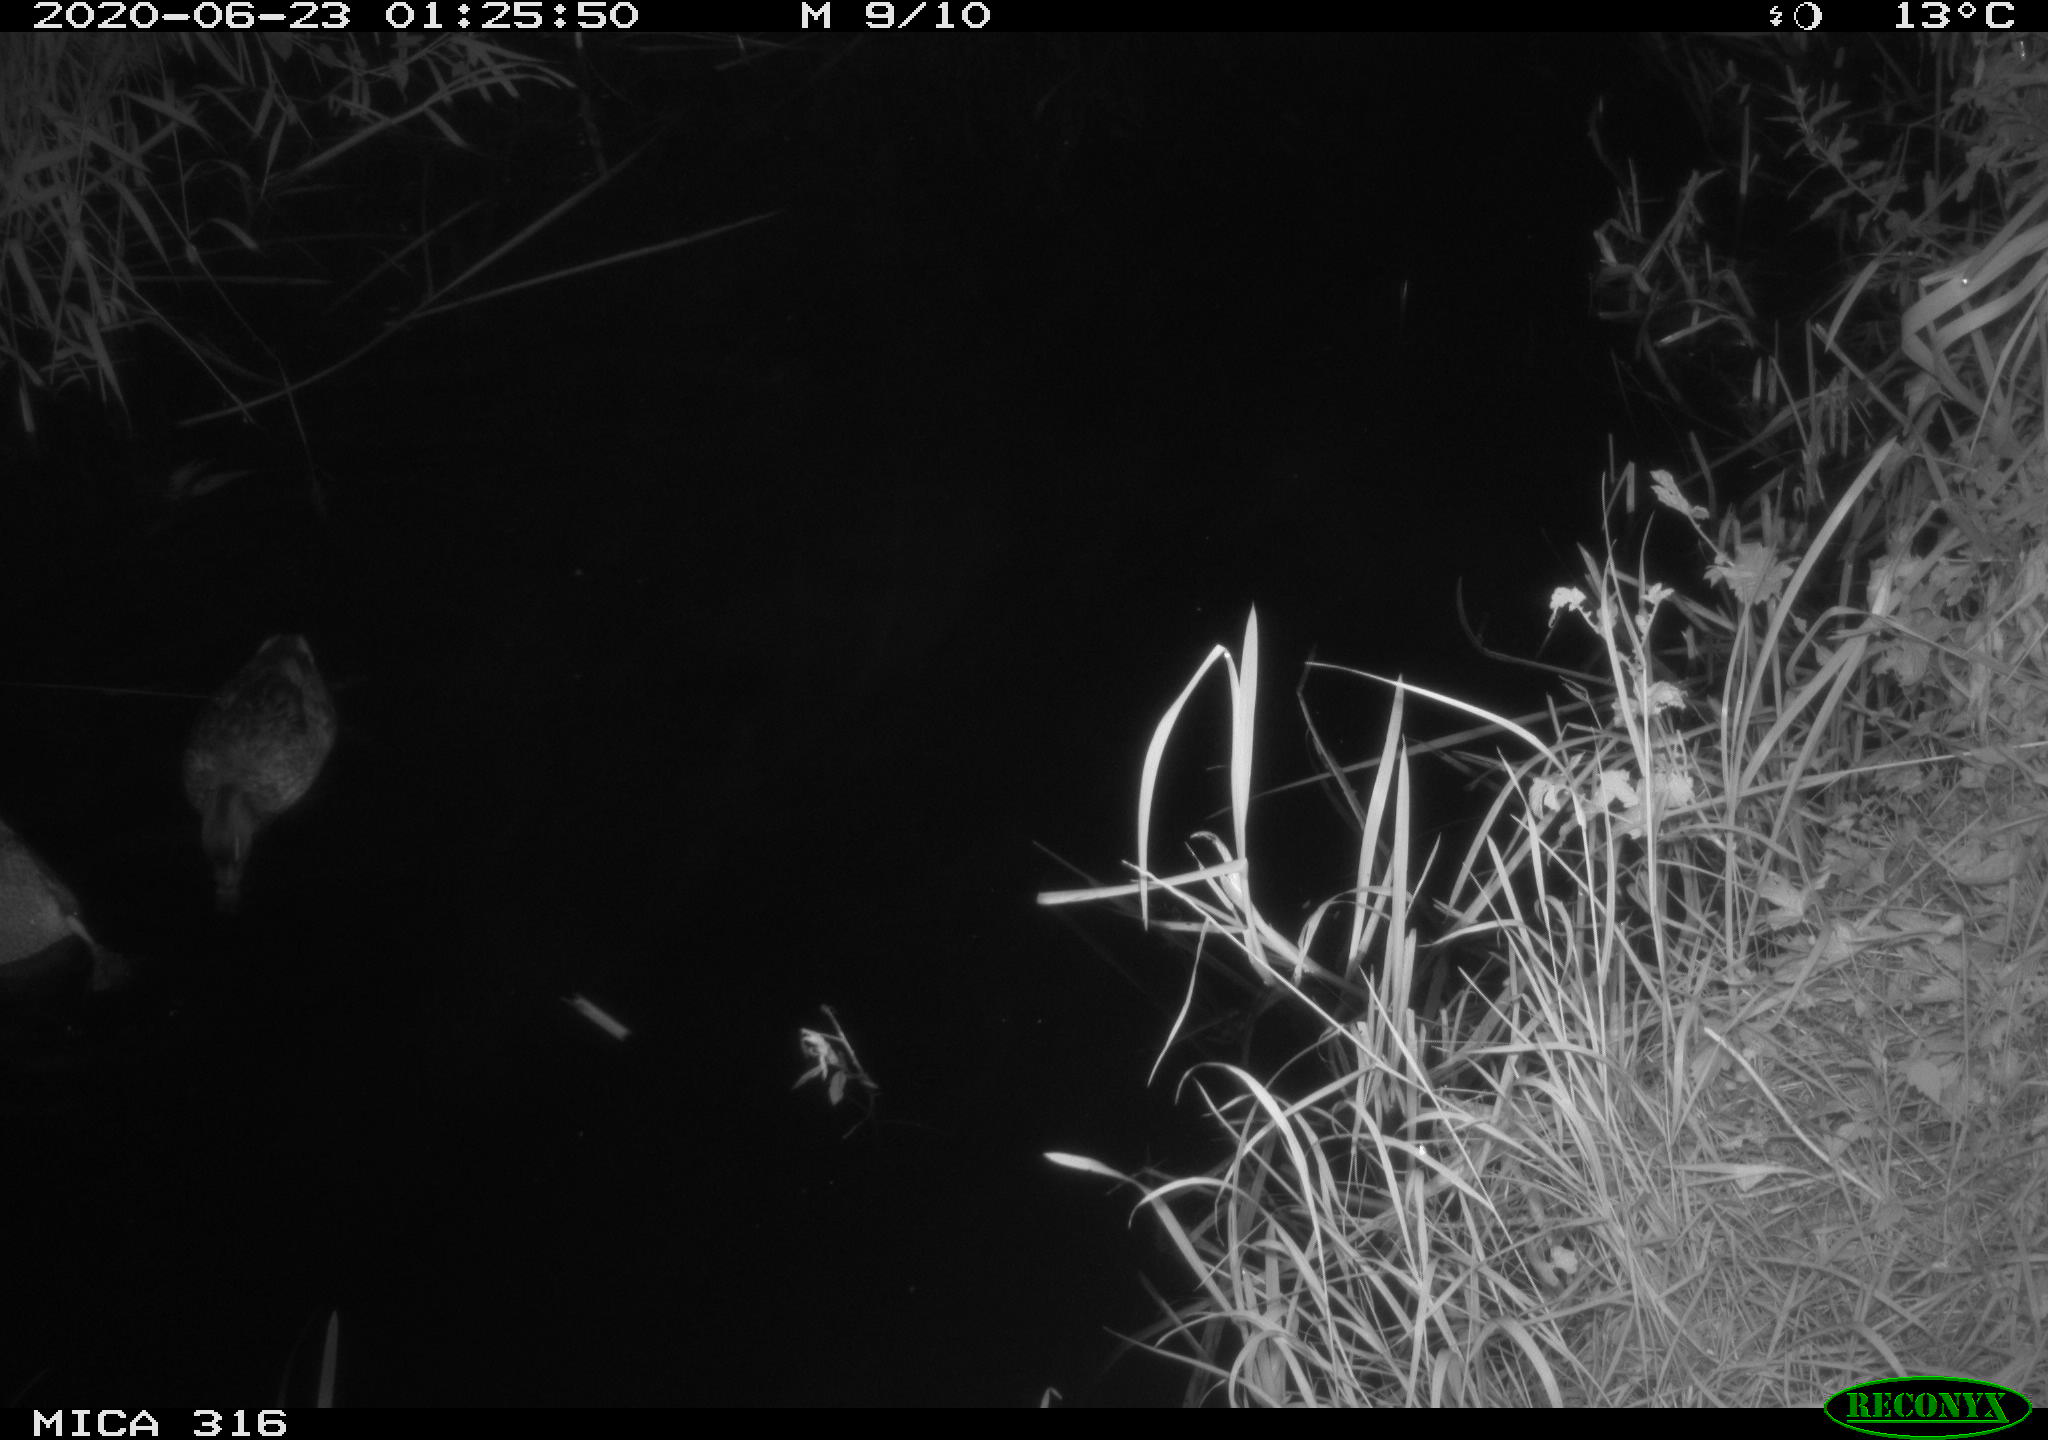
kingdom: Animalia
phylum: Chordata
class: Aves
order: Anseriformes
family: Anatidae
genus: Anas
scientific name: Anas platyrhynchos
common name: Mallard
